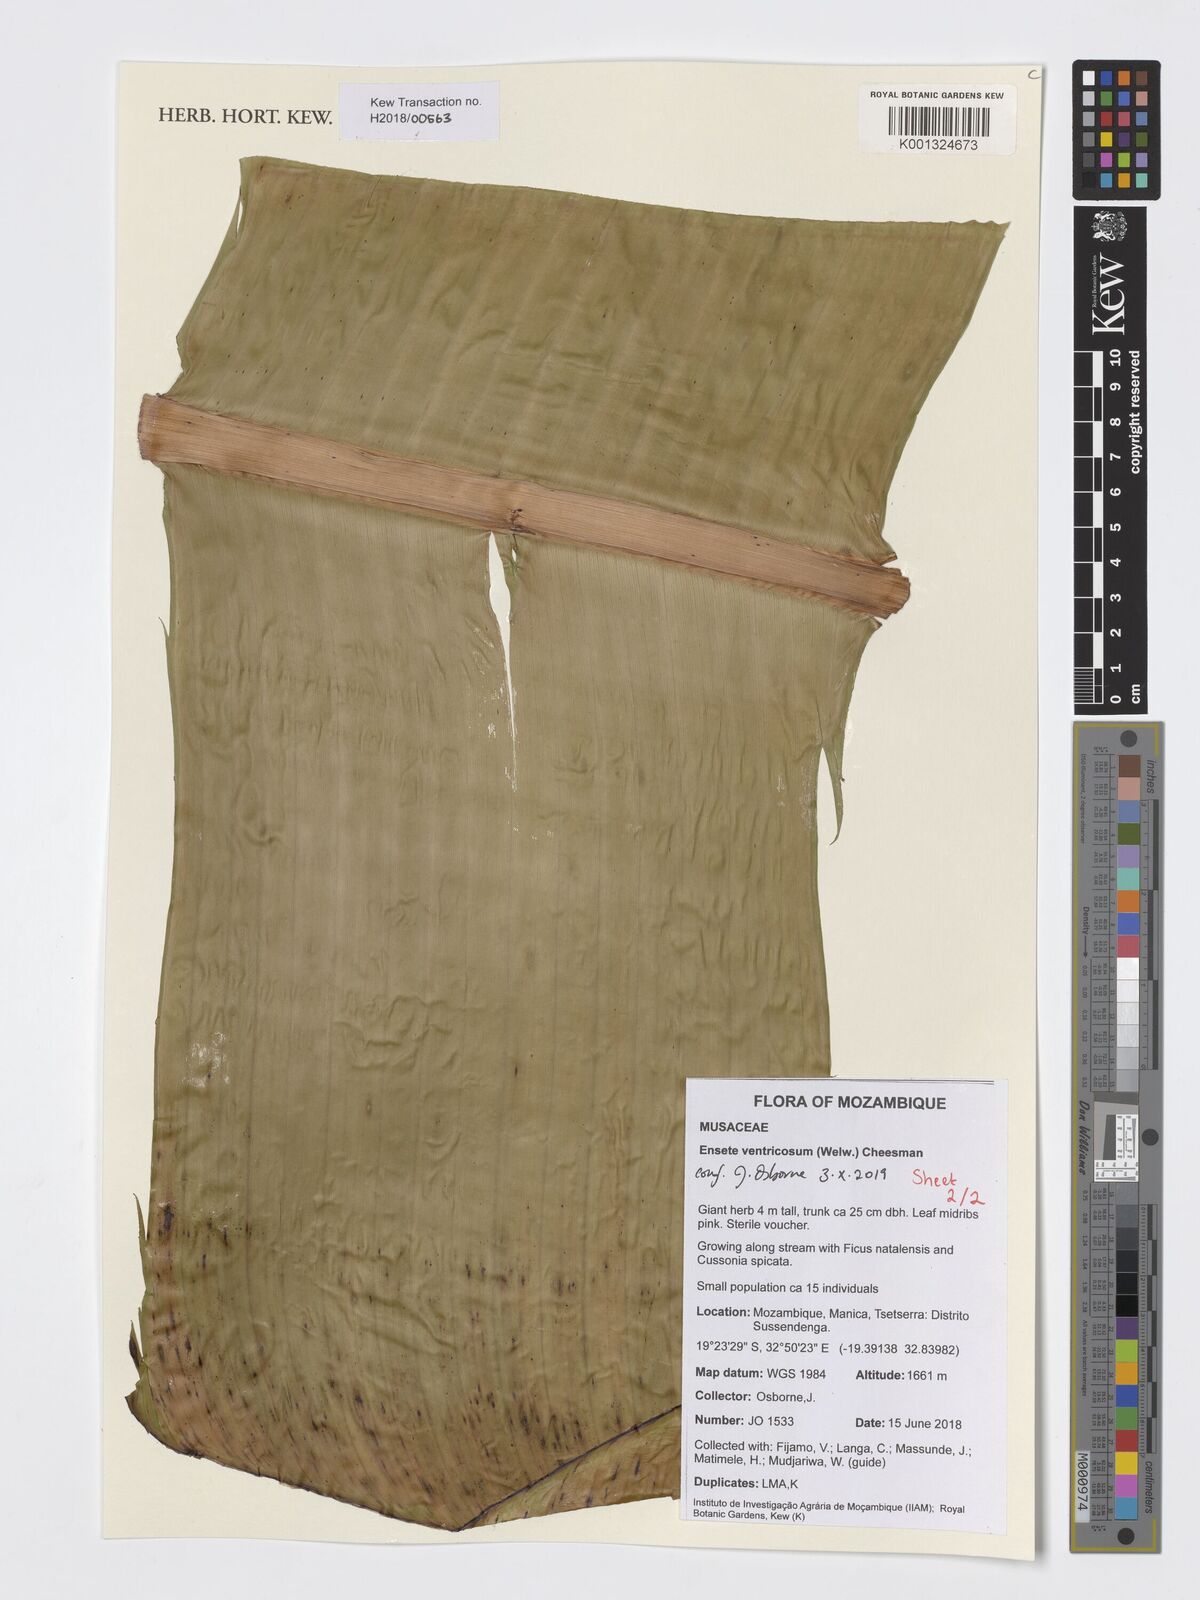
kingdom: Plantae
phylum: Tracheophyta
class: Liliopsida
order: Zingiberales
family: Musaceae
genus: Ensete
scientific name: Ensete ventricosum
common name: Abyssinian banana
